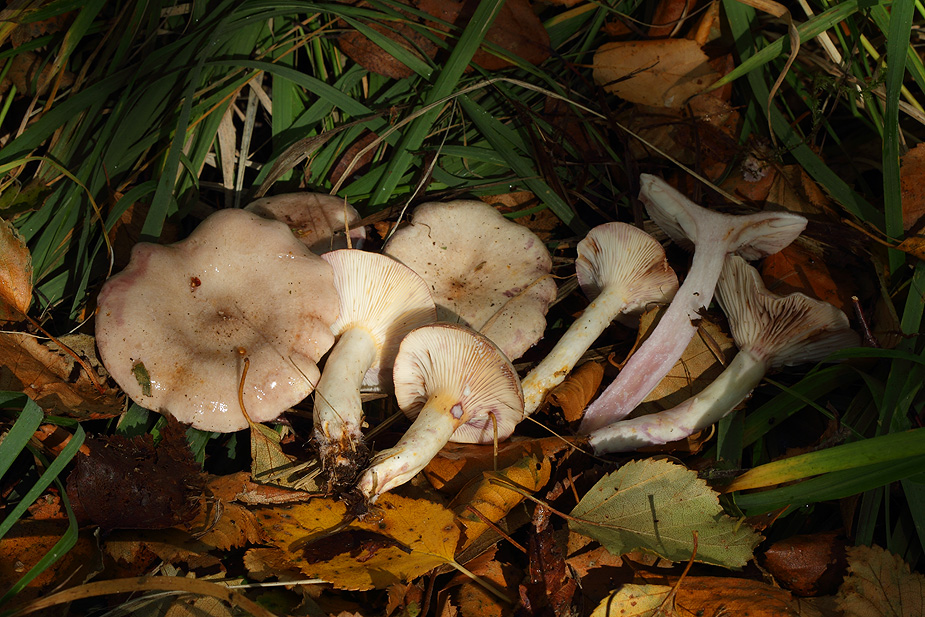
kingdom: Fungi
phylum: Basidiomycota
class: Agaricomycetes
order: Russulales
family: Russulaceae
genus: Lactarius
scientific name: Lactarius uvidus
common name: violetkødet mælkehat
